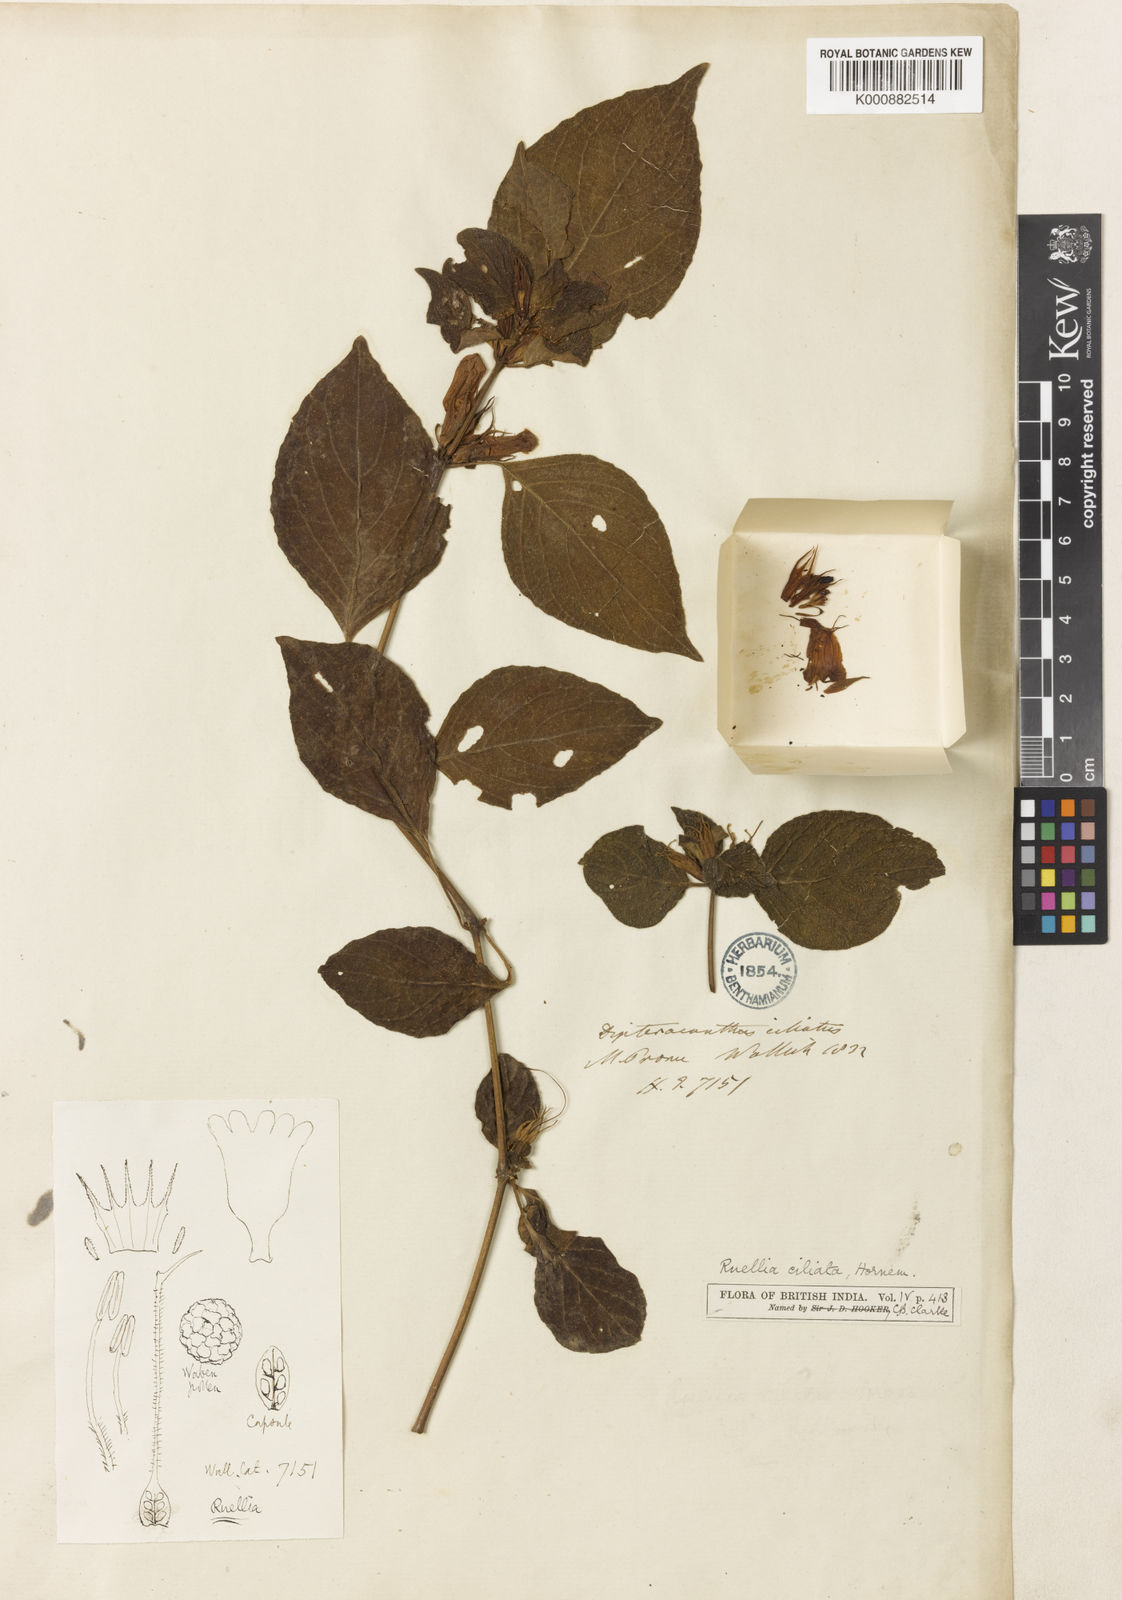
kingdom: Plantae
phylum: Tracheophyta
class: Magnoliopsida
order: Lamiales
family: Acanthaceae
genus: Ruellia
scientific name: Ruellia ciliata
